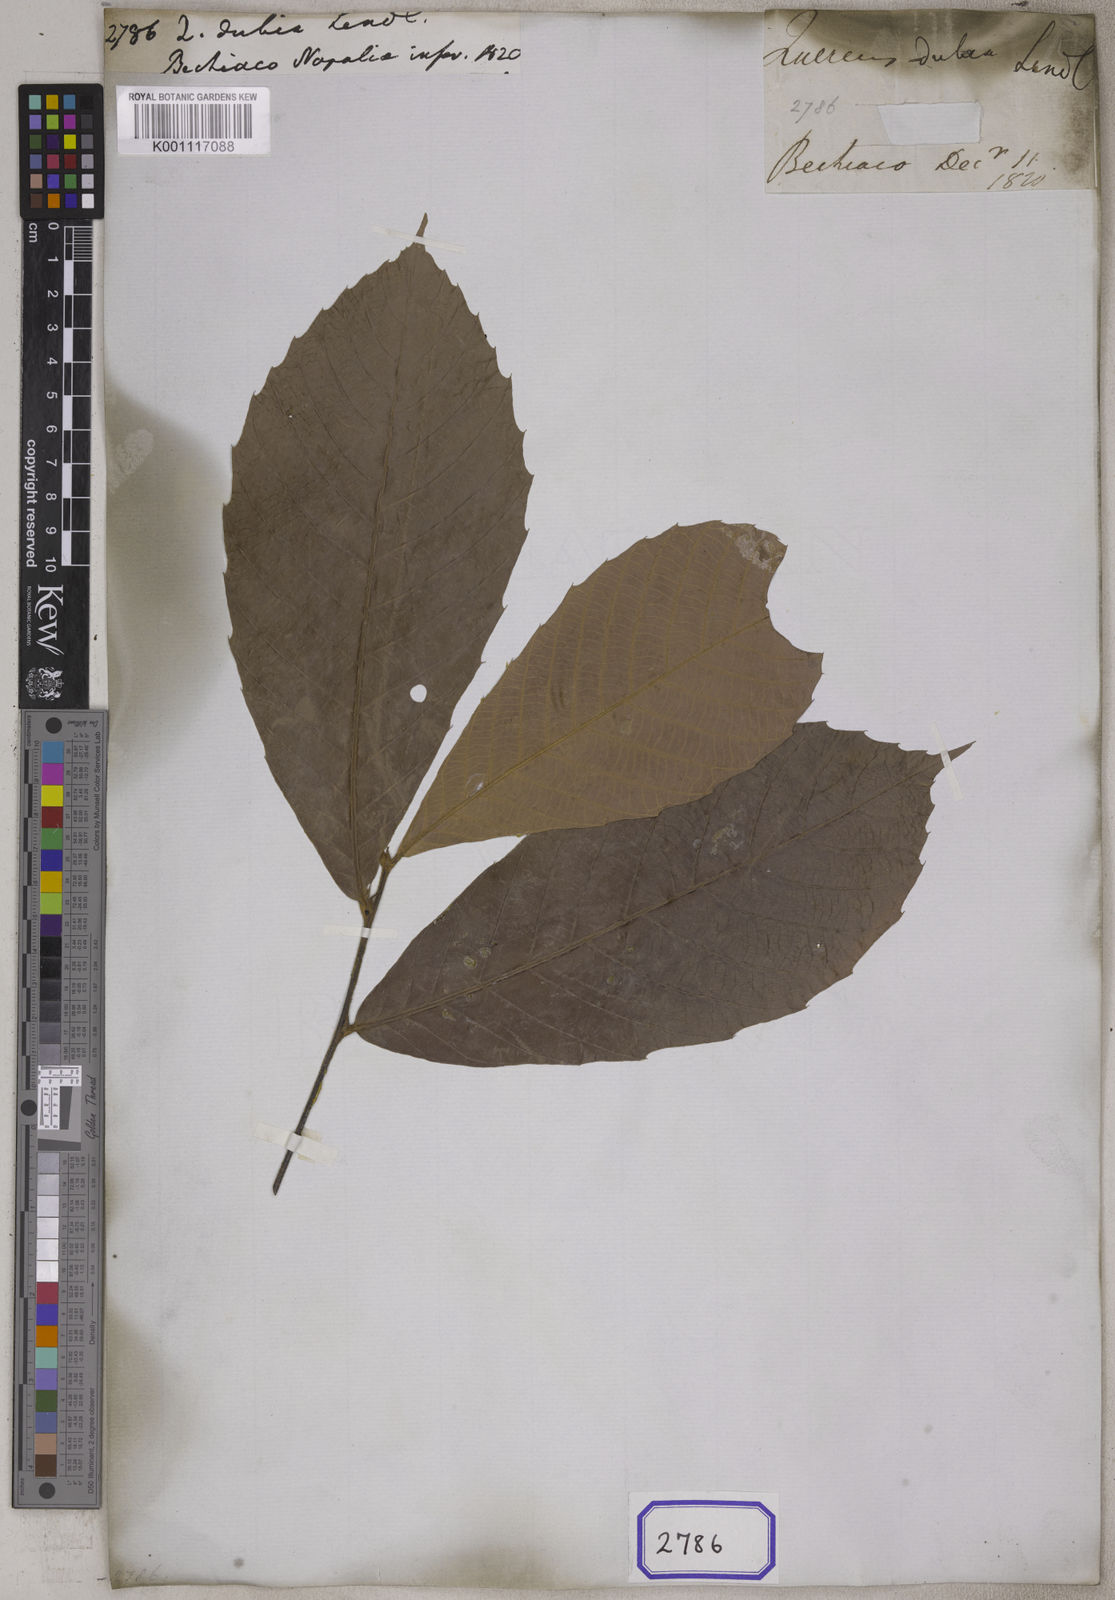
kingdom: Plantae
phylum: Tracheophyta
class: Magnoliopsida
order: Fagales
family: Fagaceae
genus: Quercus
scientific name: Quercus
